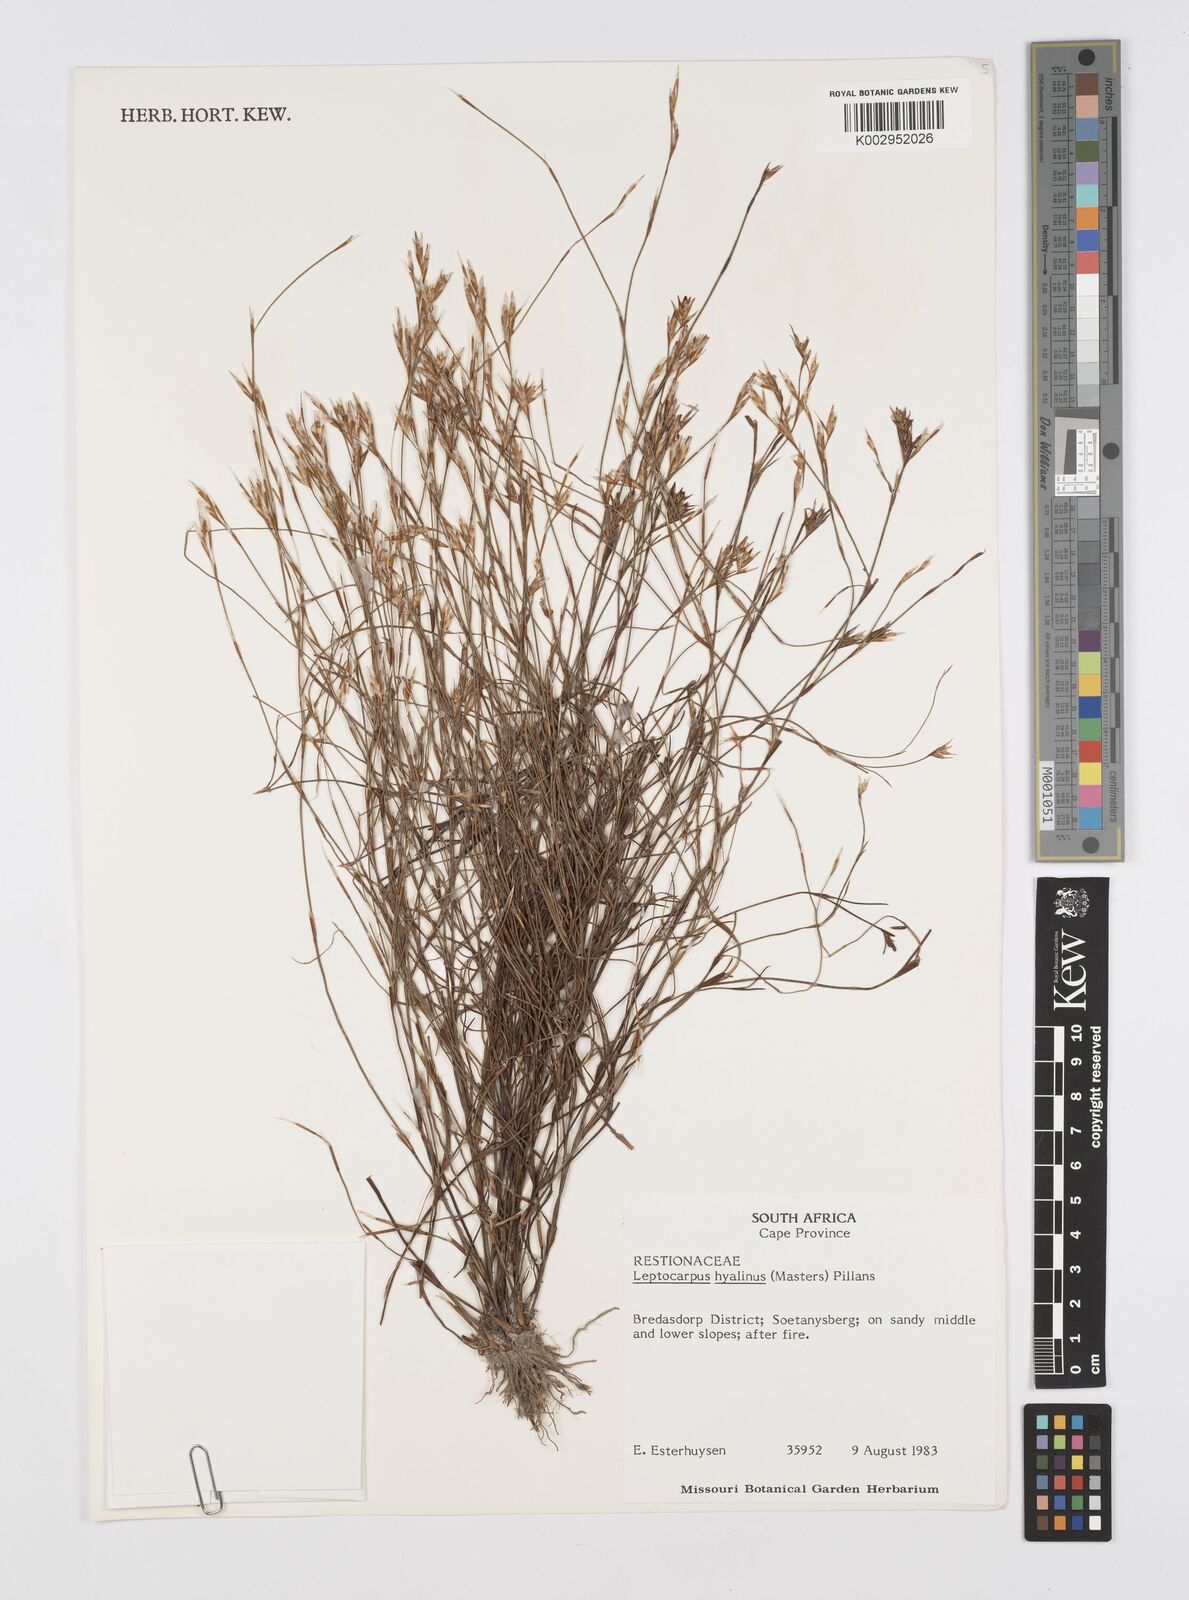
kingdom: Plantae
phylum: Tracheophyta
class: Liliopsida
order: Poales
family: Restionaceae
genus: Restio
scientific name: Restio hyalinus
